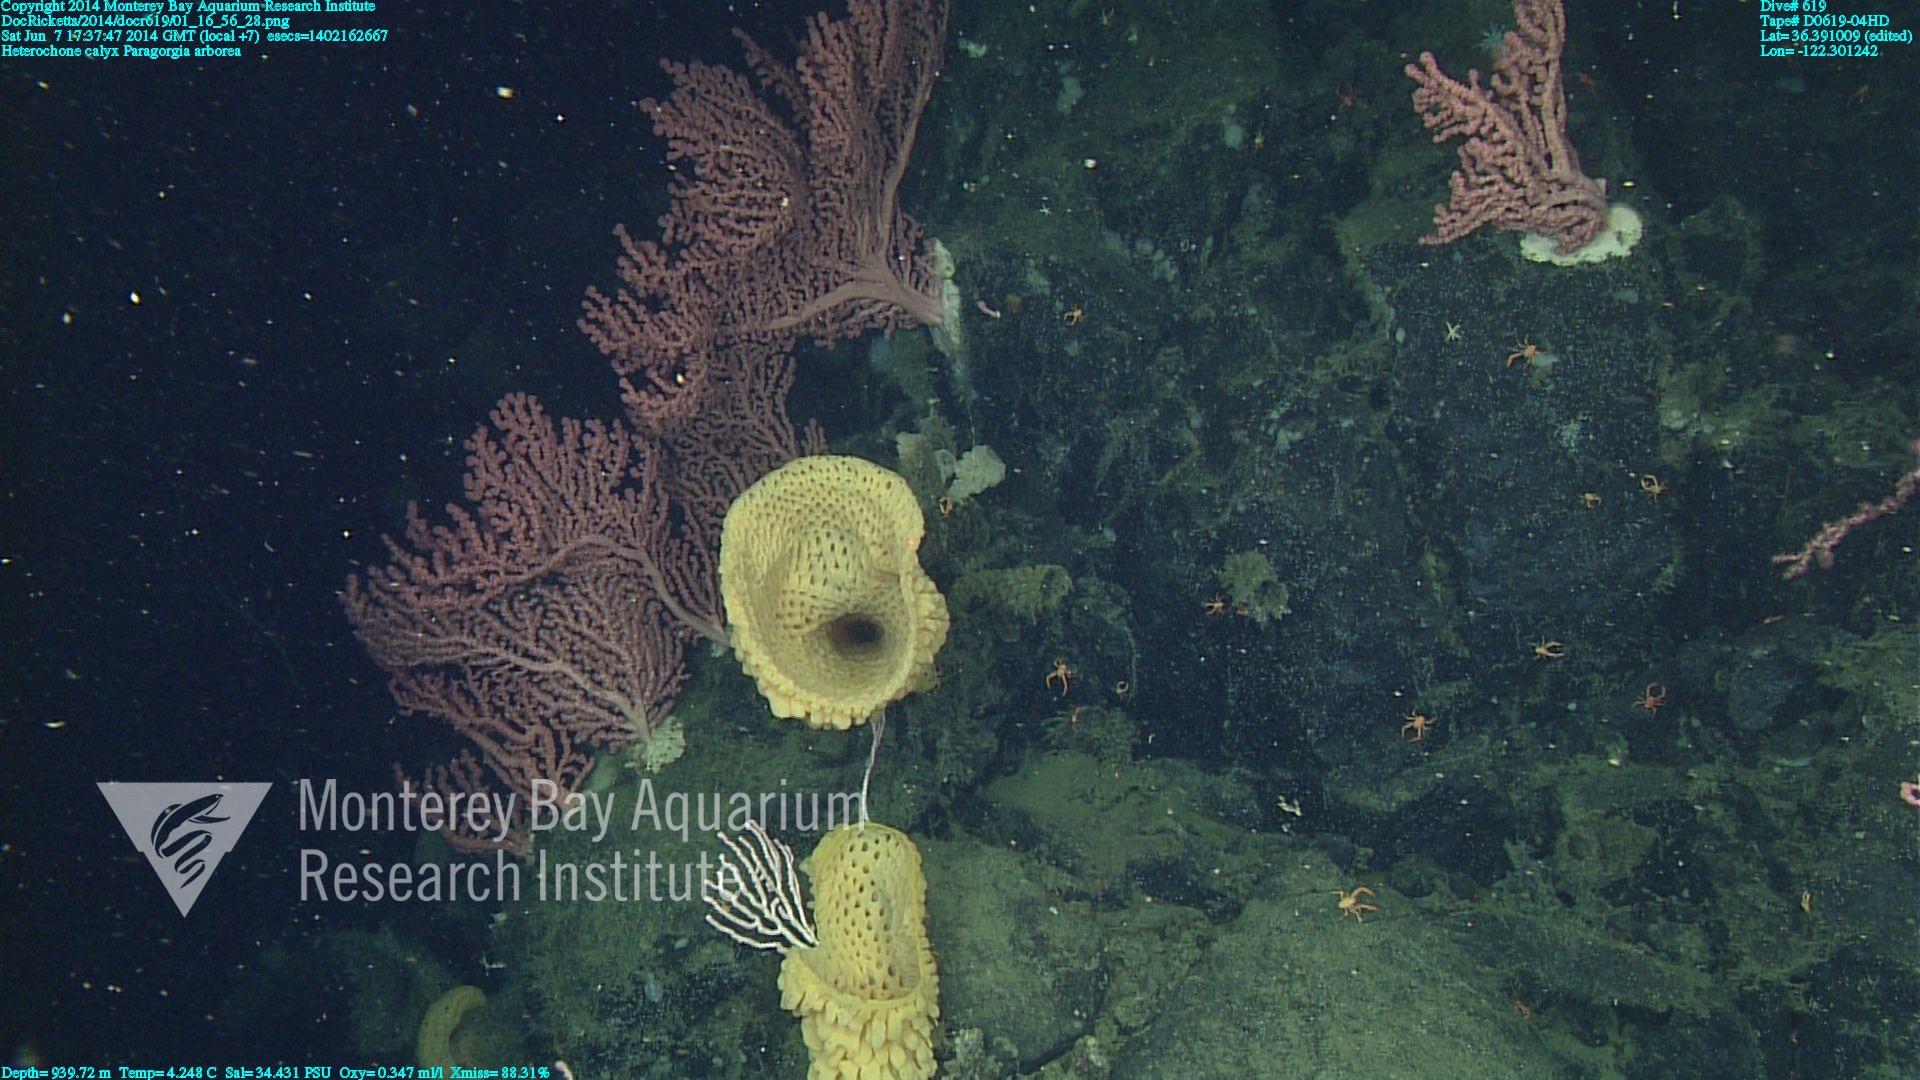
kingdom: Animalia
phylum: Cnidaria
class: Anthozoa
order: Scleralcyonacea
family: Coralliidae
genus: Paragorgia
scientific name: Paragorgia arborea
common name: Bubble gum coral
